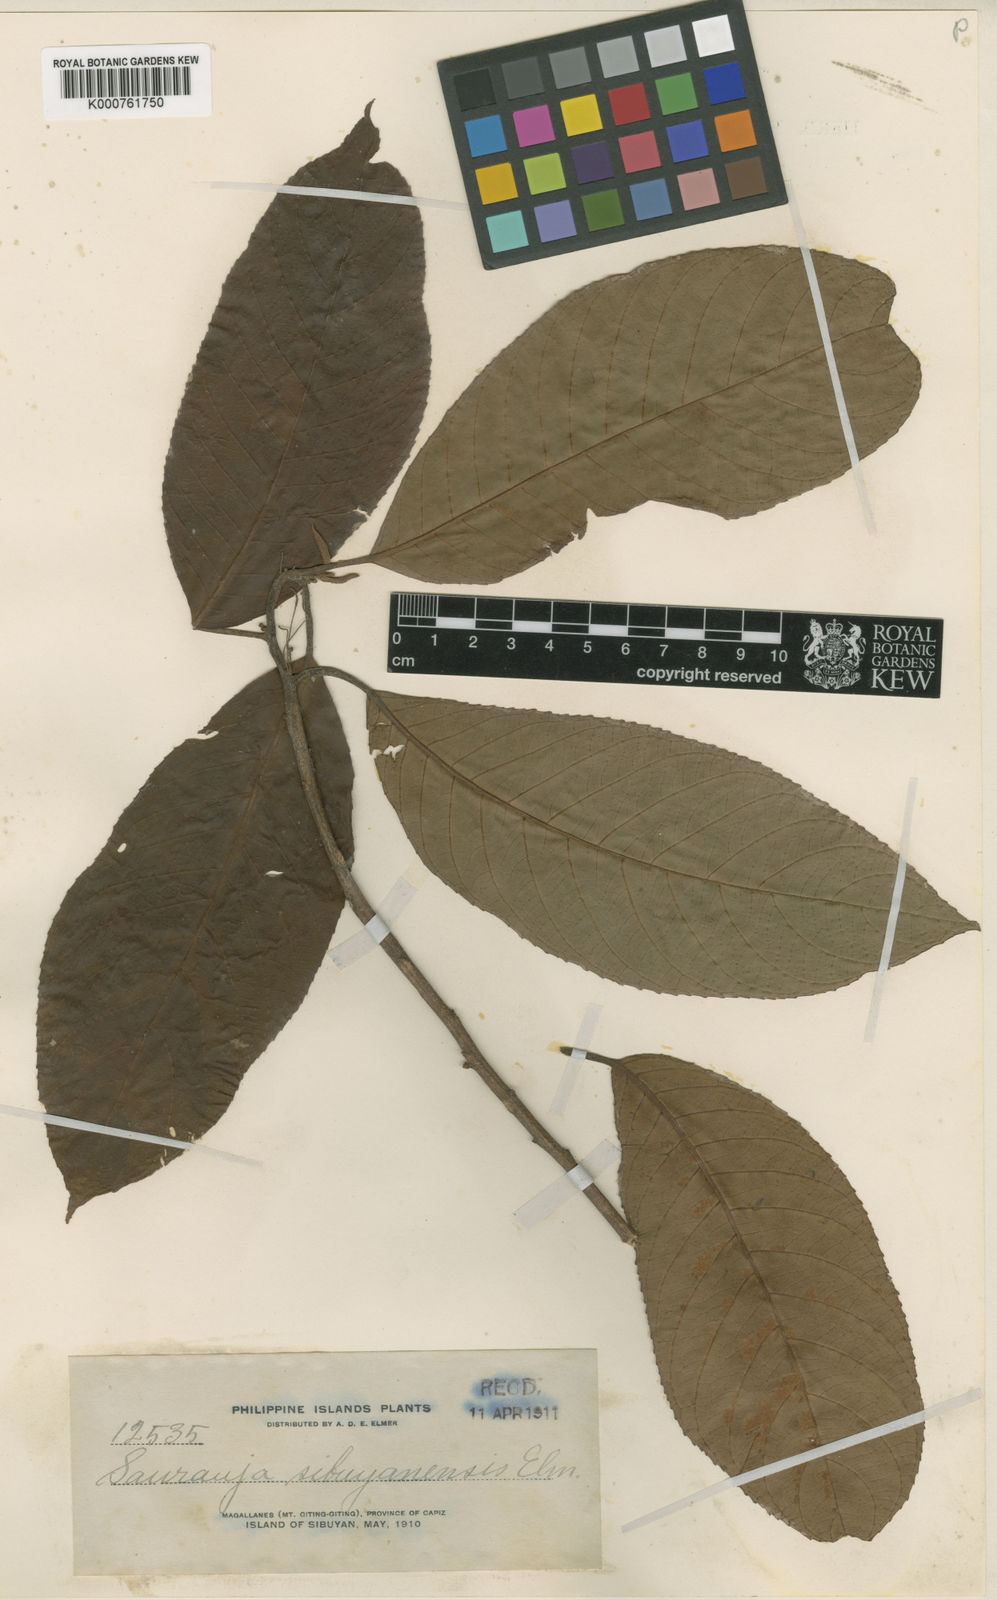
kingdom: Plantae
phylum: Tracheophyta
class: Magnoliopsida
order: Ericales
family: Actinidiaceae
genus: Saurauia
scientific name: Saurauia sibuyanensis
